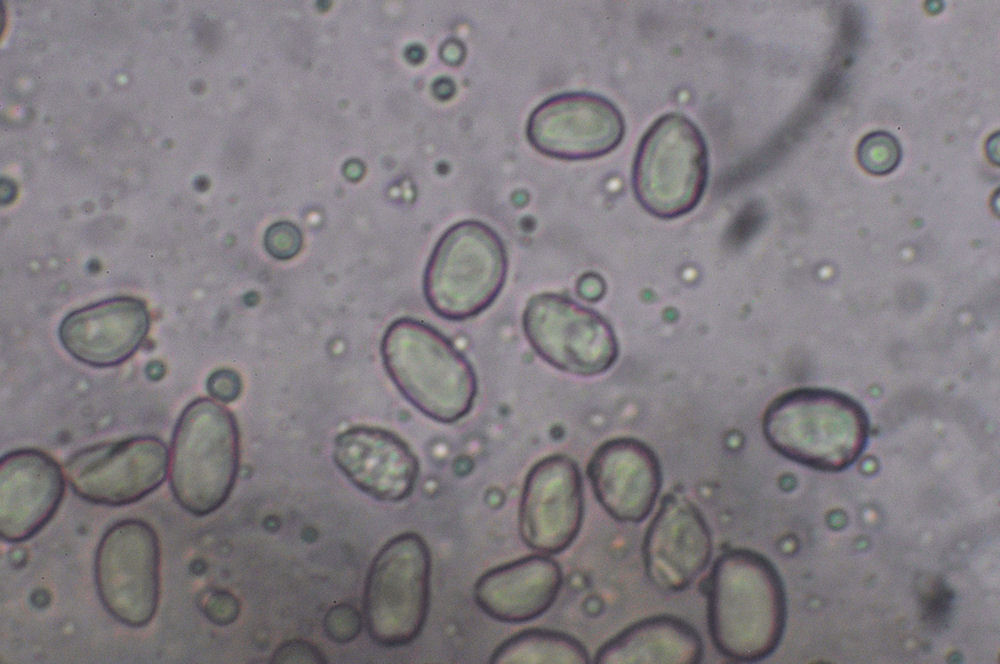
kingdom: Fungi
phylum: Basidiomycota
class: Agaricomycetes
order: Cantharellales
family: Hydnaceae
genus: Hydnum
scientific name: Hydnum ellipsosporum
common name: tandet pigsvamp
